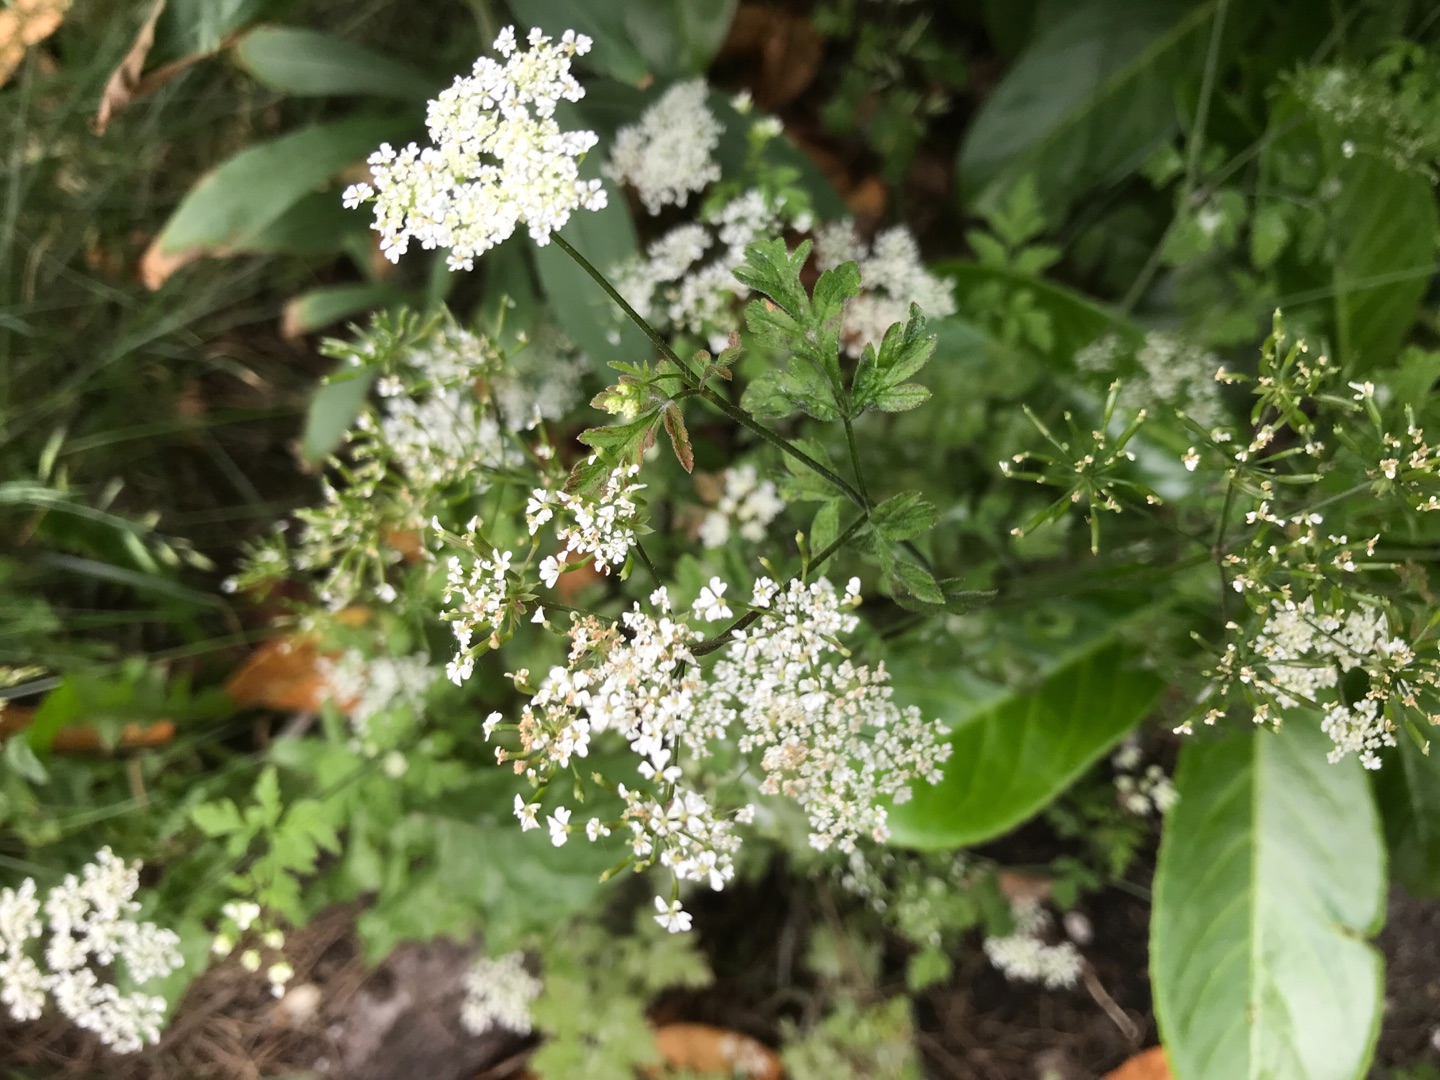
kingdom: Plantae
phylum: Tracheophyta
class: Magnoliopsida
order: Apiales
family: Apiaceae
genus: Chaerophyllum
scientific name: Chaerophyllum temulum
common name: Almindelig hulsvøb
